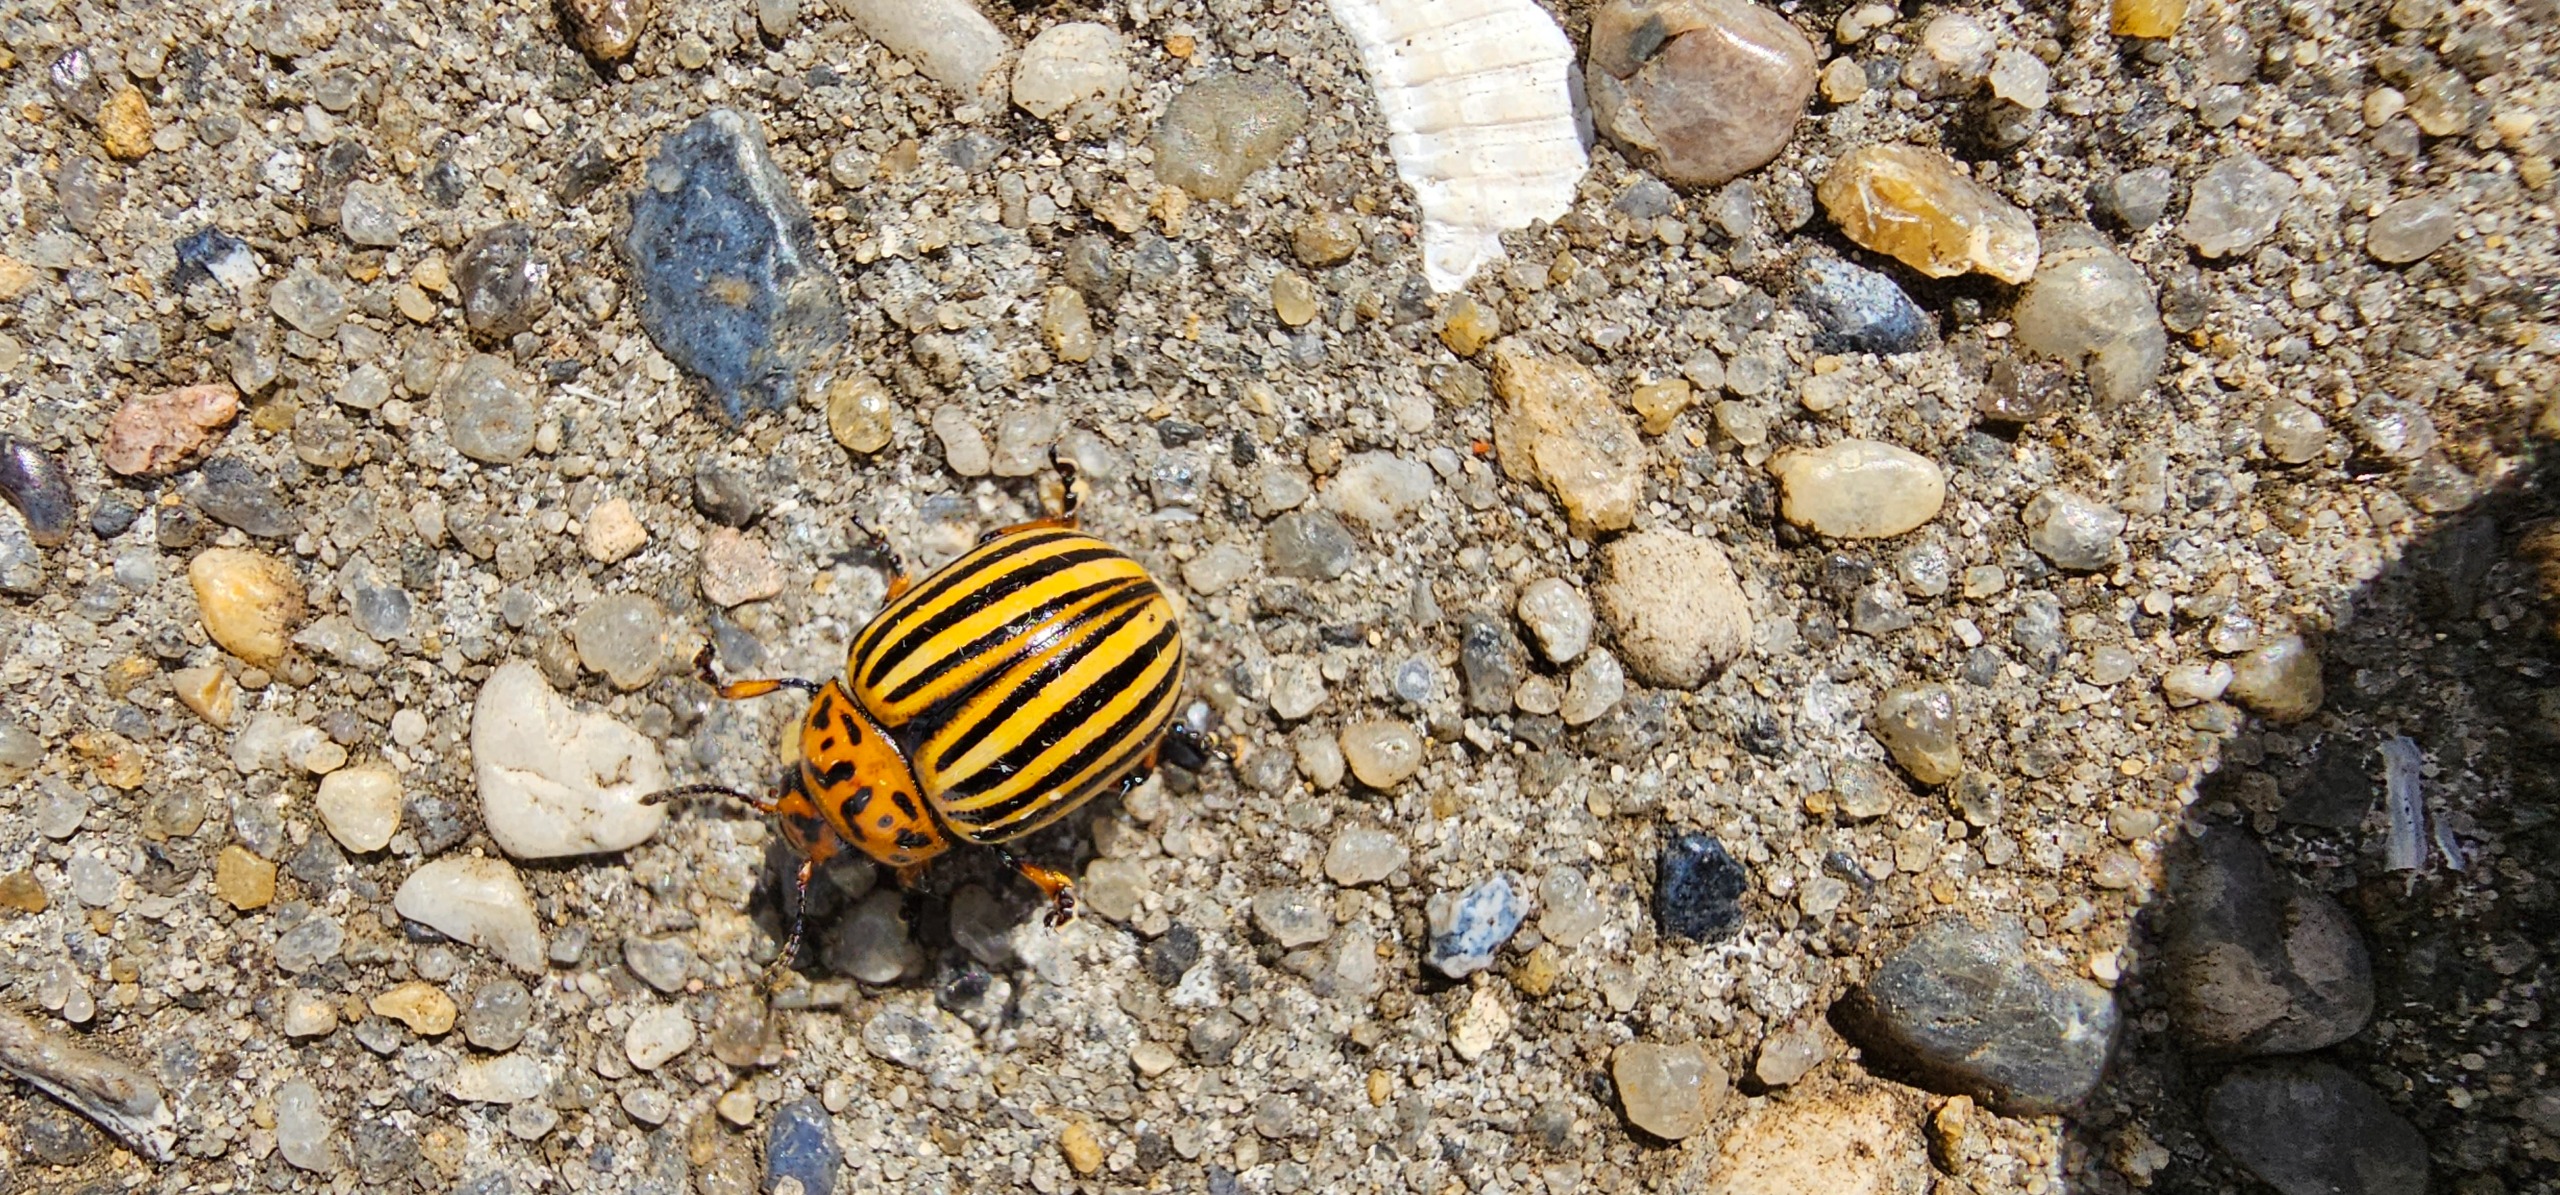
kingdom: Animalia
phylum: Arthropoda
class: Insecta
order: Coleoptera
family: Chrysomelidae
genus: Leptinotarsa
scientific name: Leptinotarsa decemlineata
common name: Coloradobille
